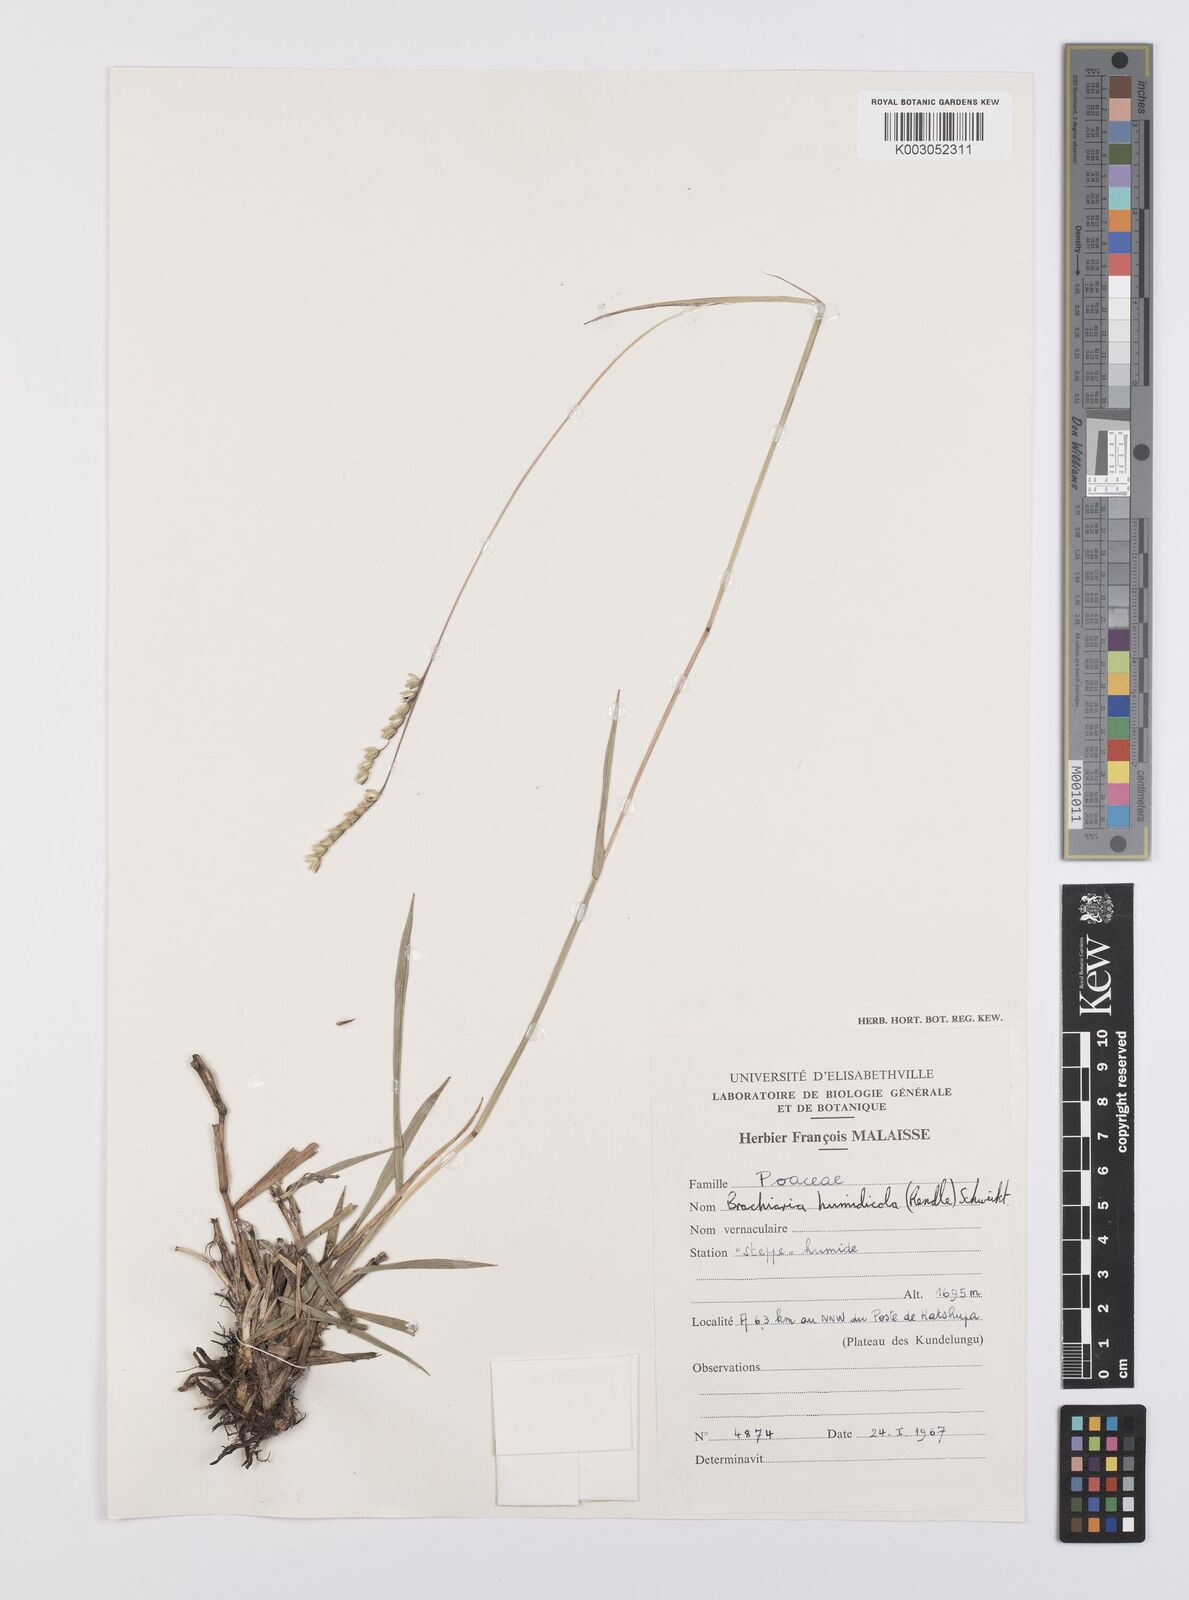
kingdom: Plantae
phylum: Tracheophyta
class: Liliopsida
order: Poales
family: Poaceae
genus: Urochloa
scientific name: Urochloa dictyoneura
